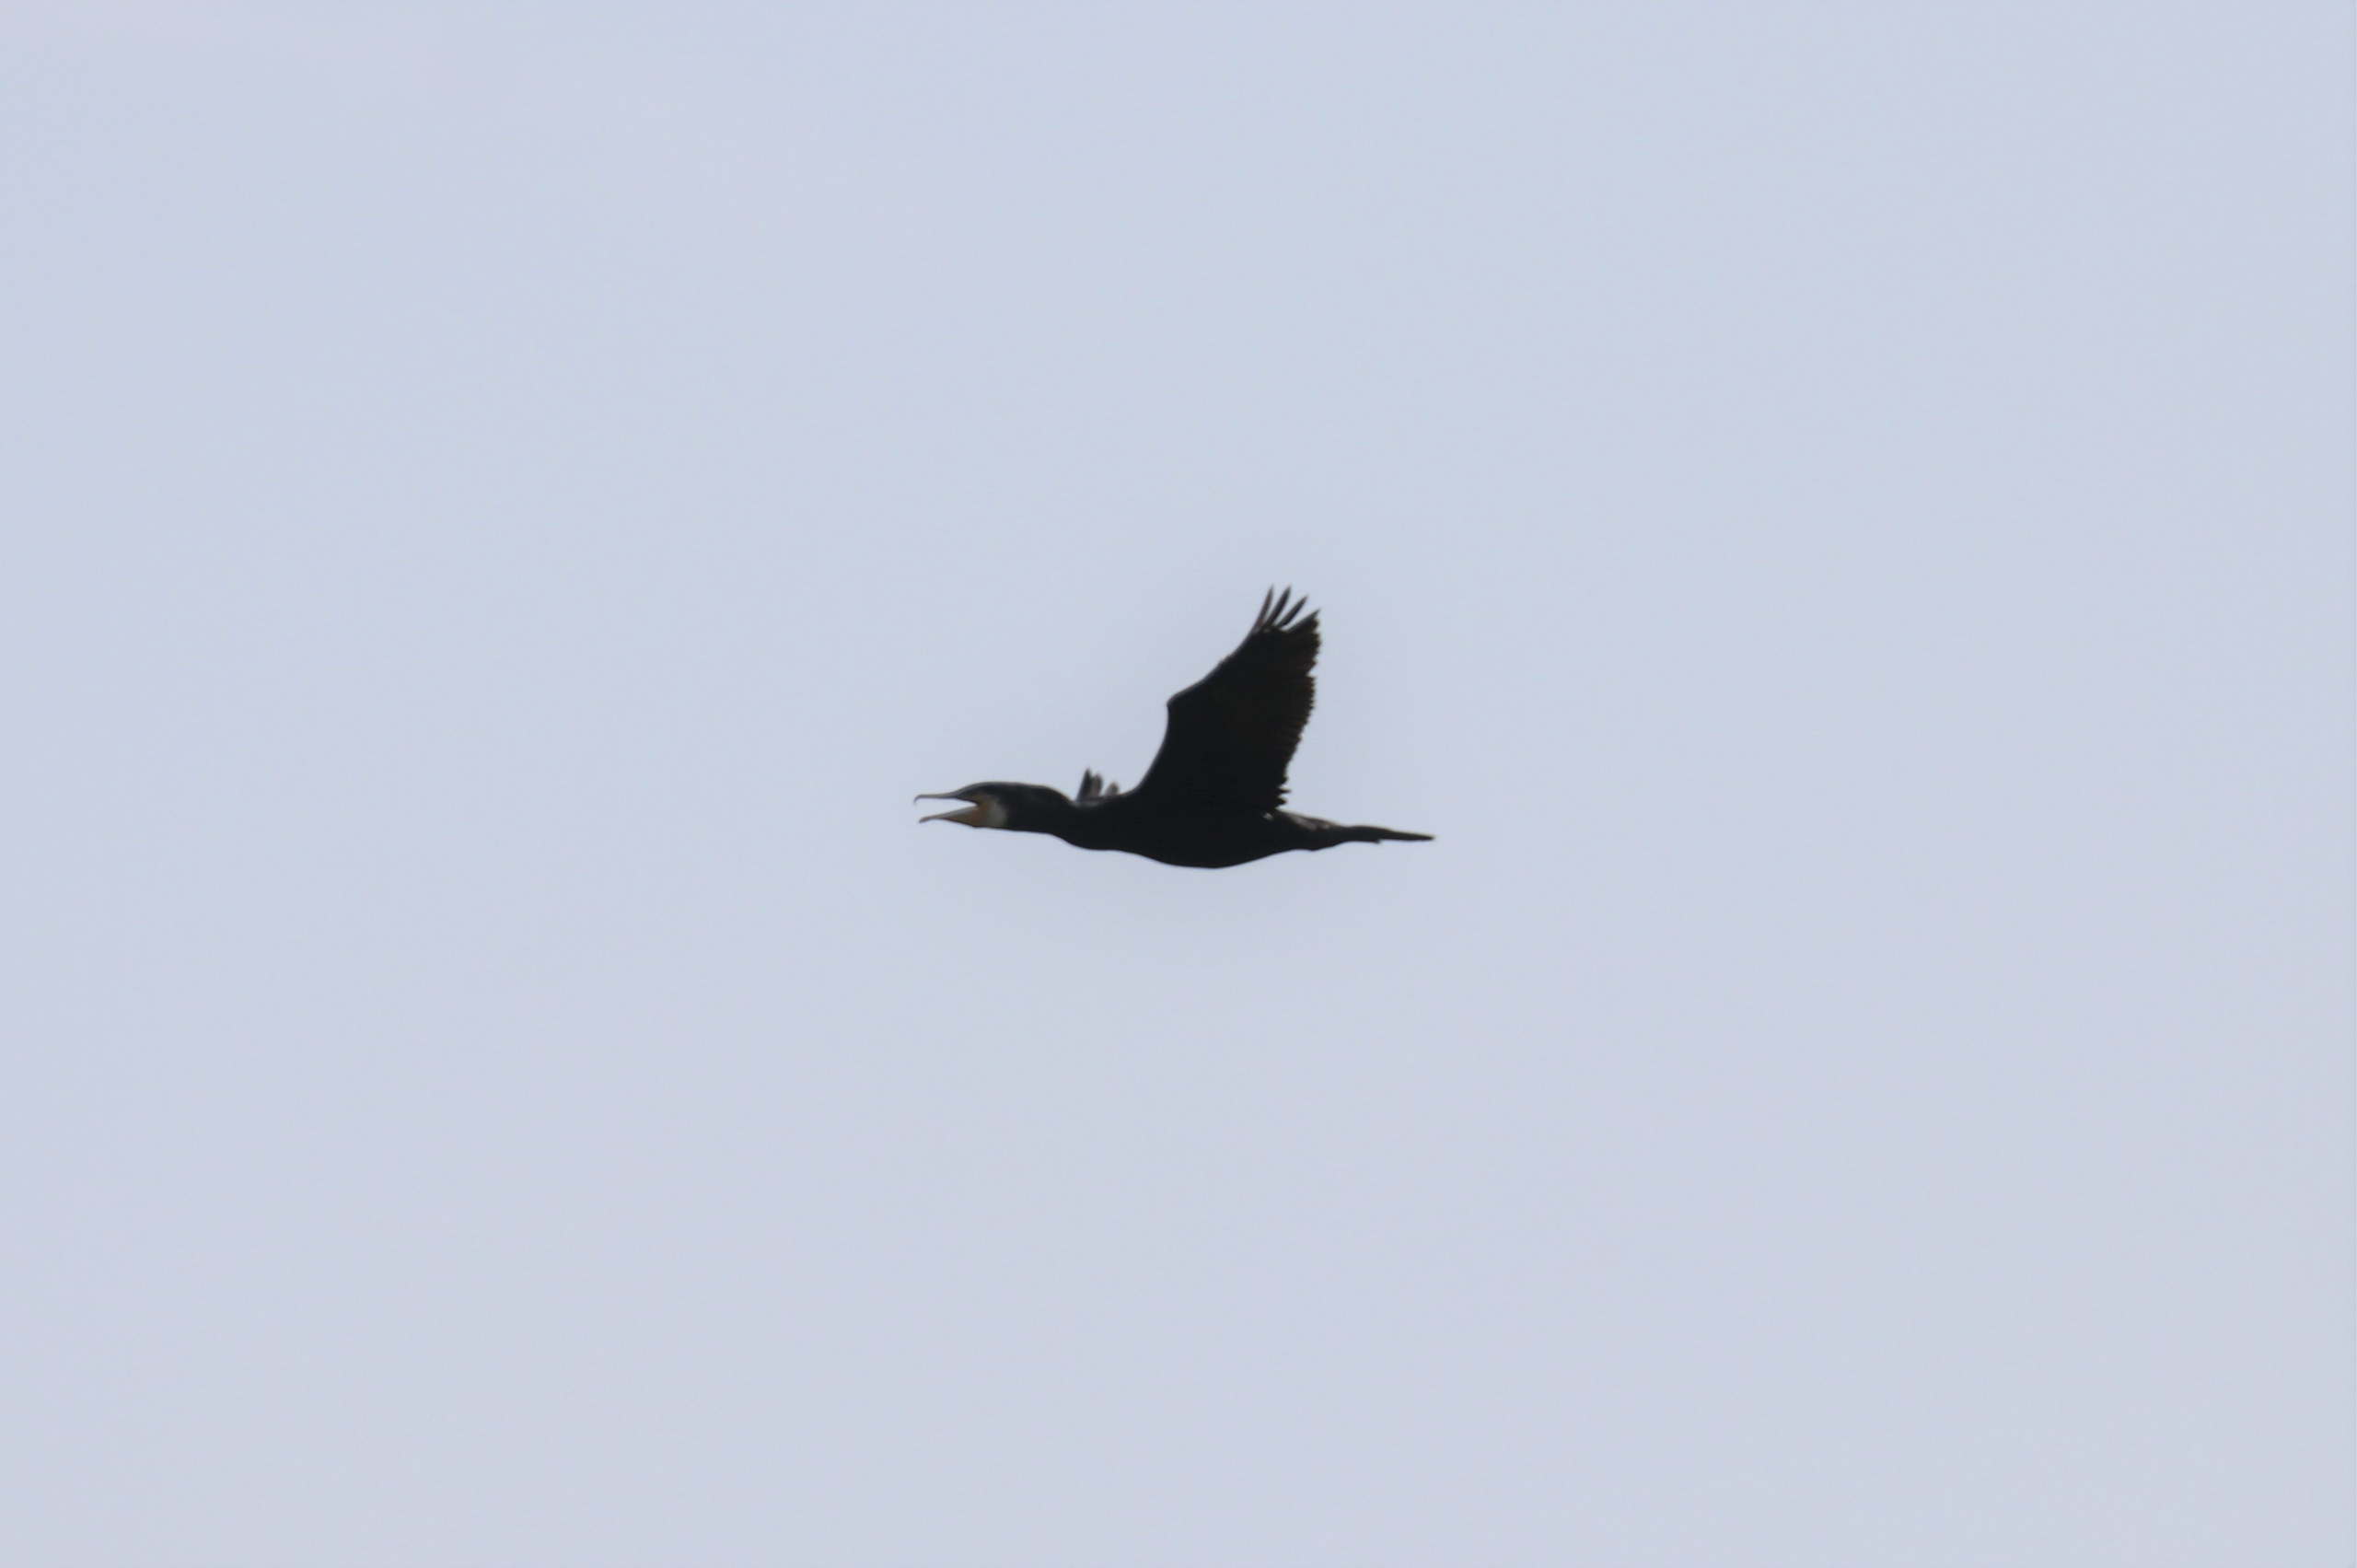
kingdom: Animalia
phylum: Chordata
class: Aves
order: Suliformes
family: Phalacrocoracidae
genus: Phalacrocorax
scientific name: Phalacrocorax carbo
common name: Skarv
